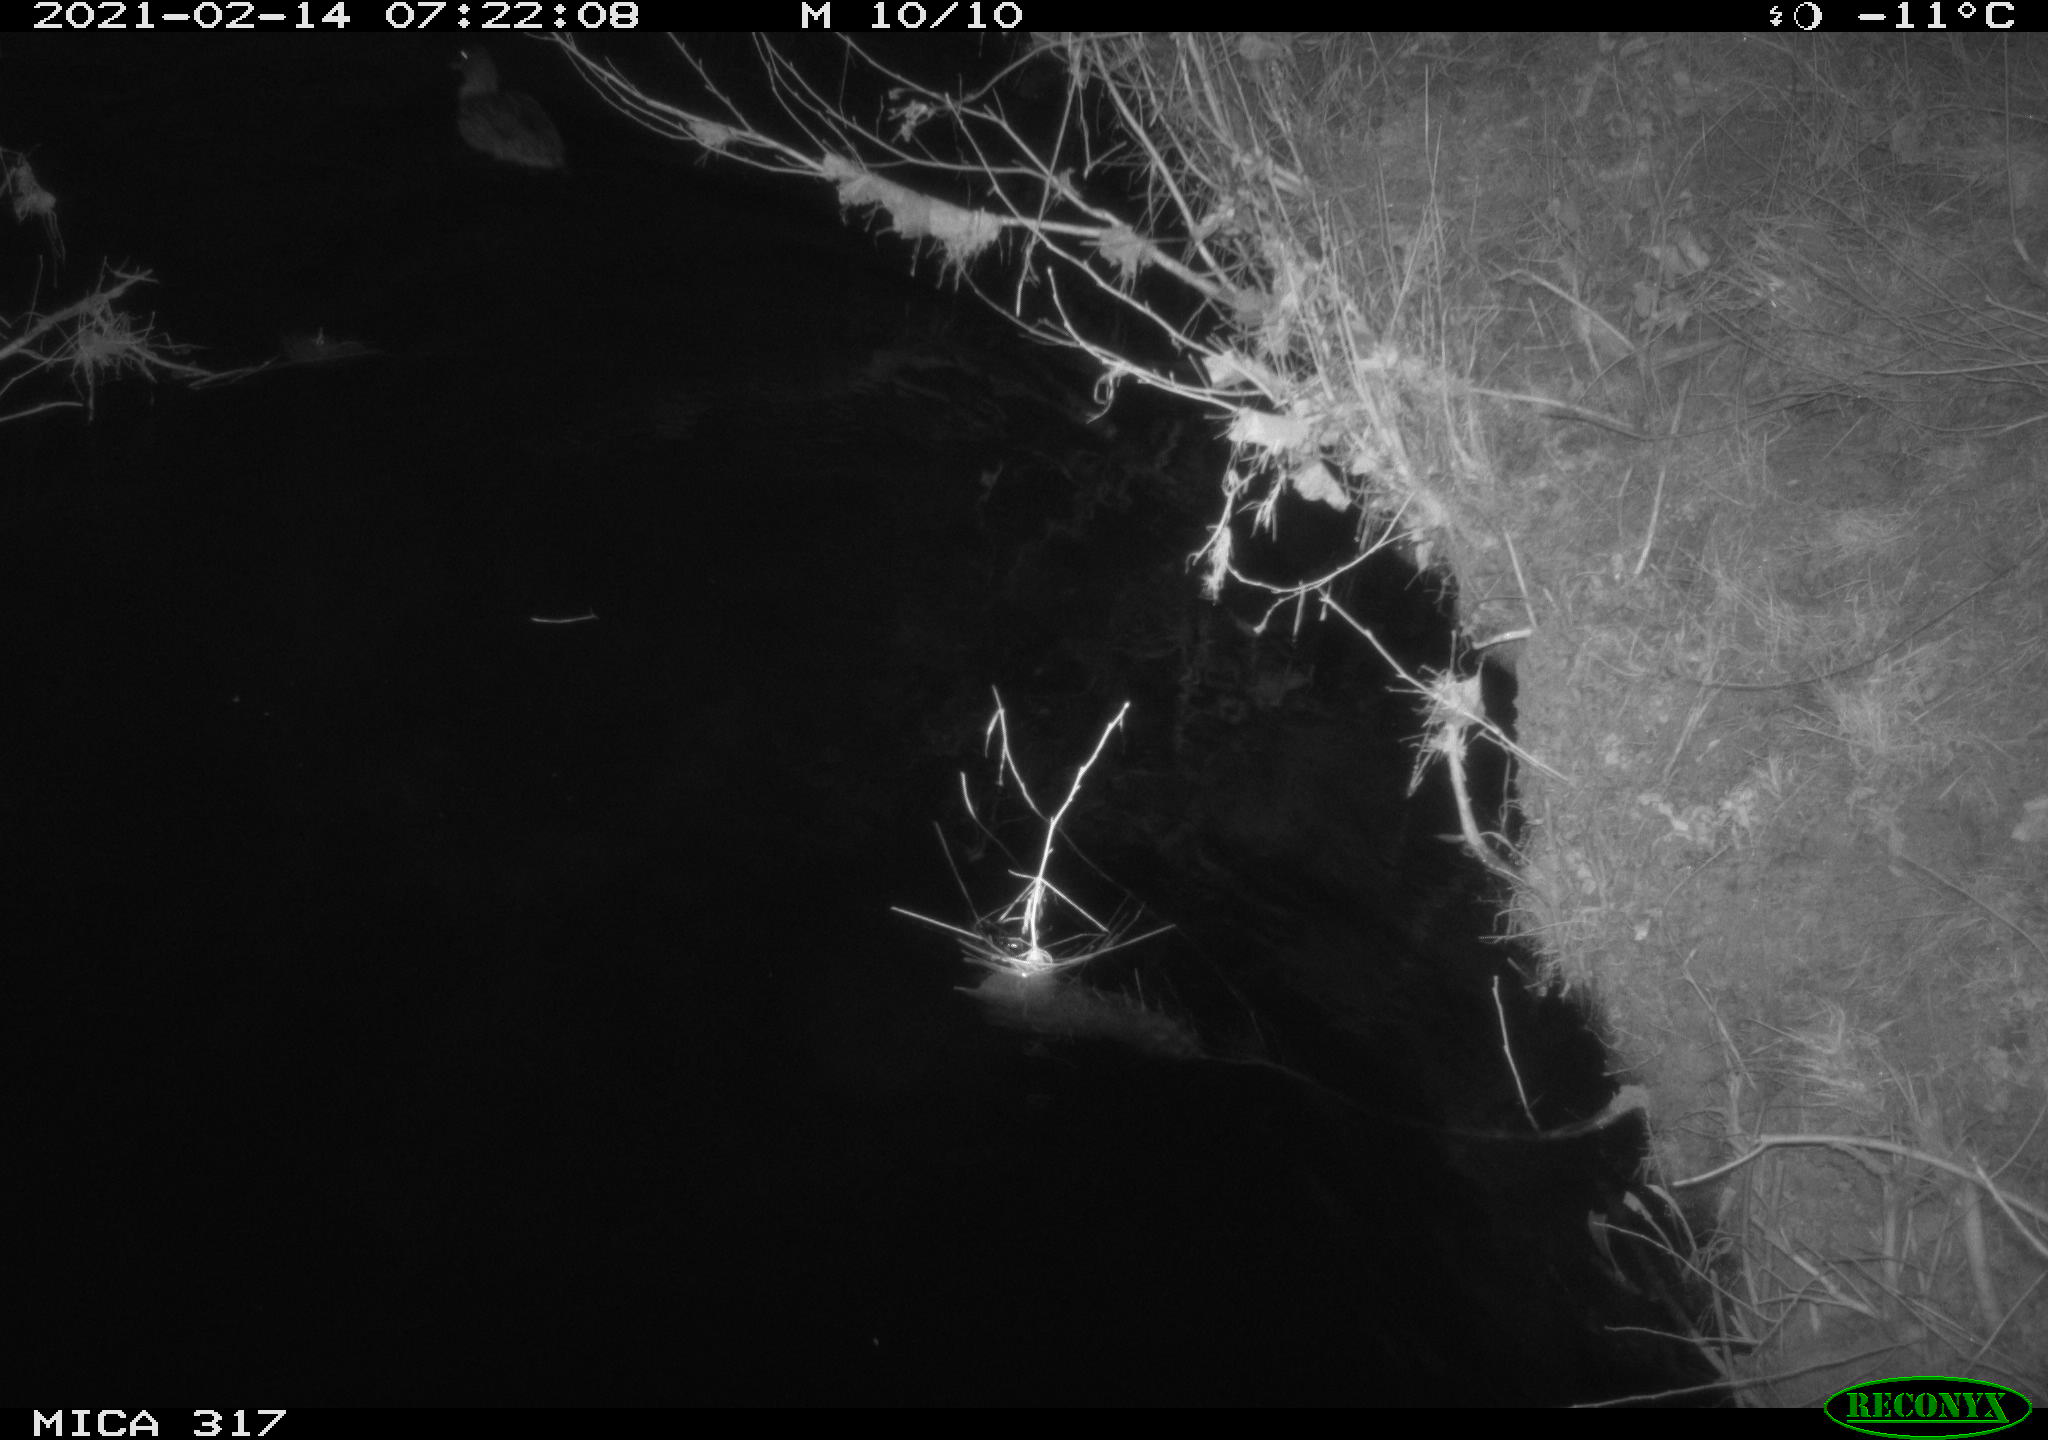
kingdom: Animalia
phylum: Chordata
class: Aves
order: Anseriformes
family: Anatidae
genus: Anas
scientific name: Anas platyrhynchos
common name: Mallard
